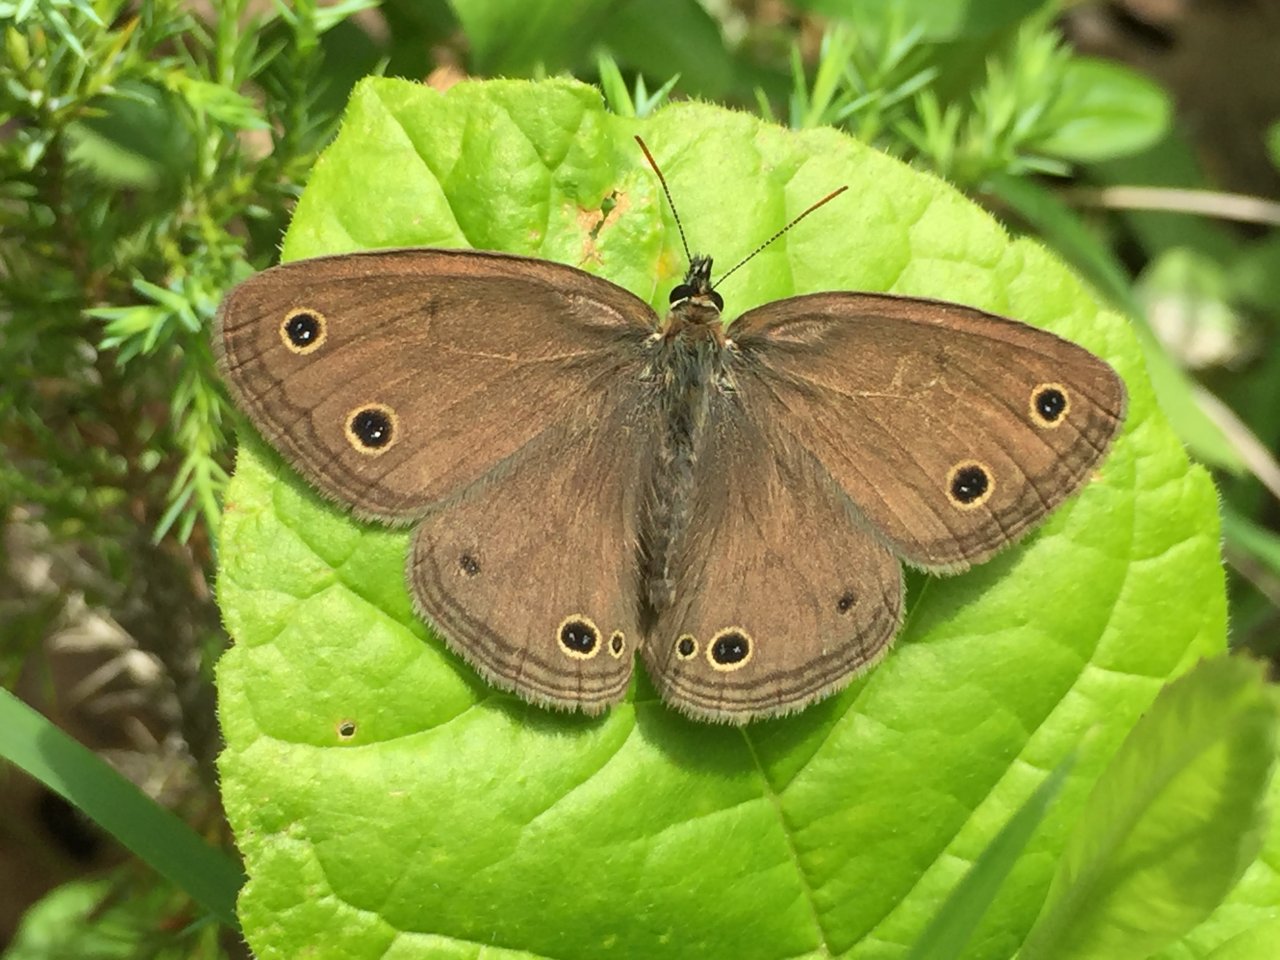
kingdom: Animalia
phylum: Arthropoda
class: Insecta
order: Lepidoptera
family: Nymphalidae
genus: Euptychia
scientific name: Euptychia cymela
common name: Little Wood Satyr
